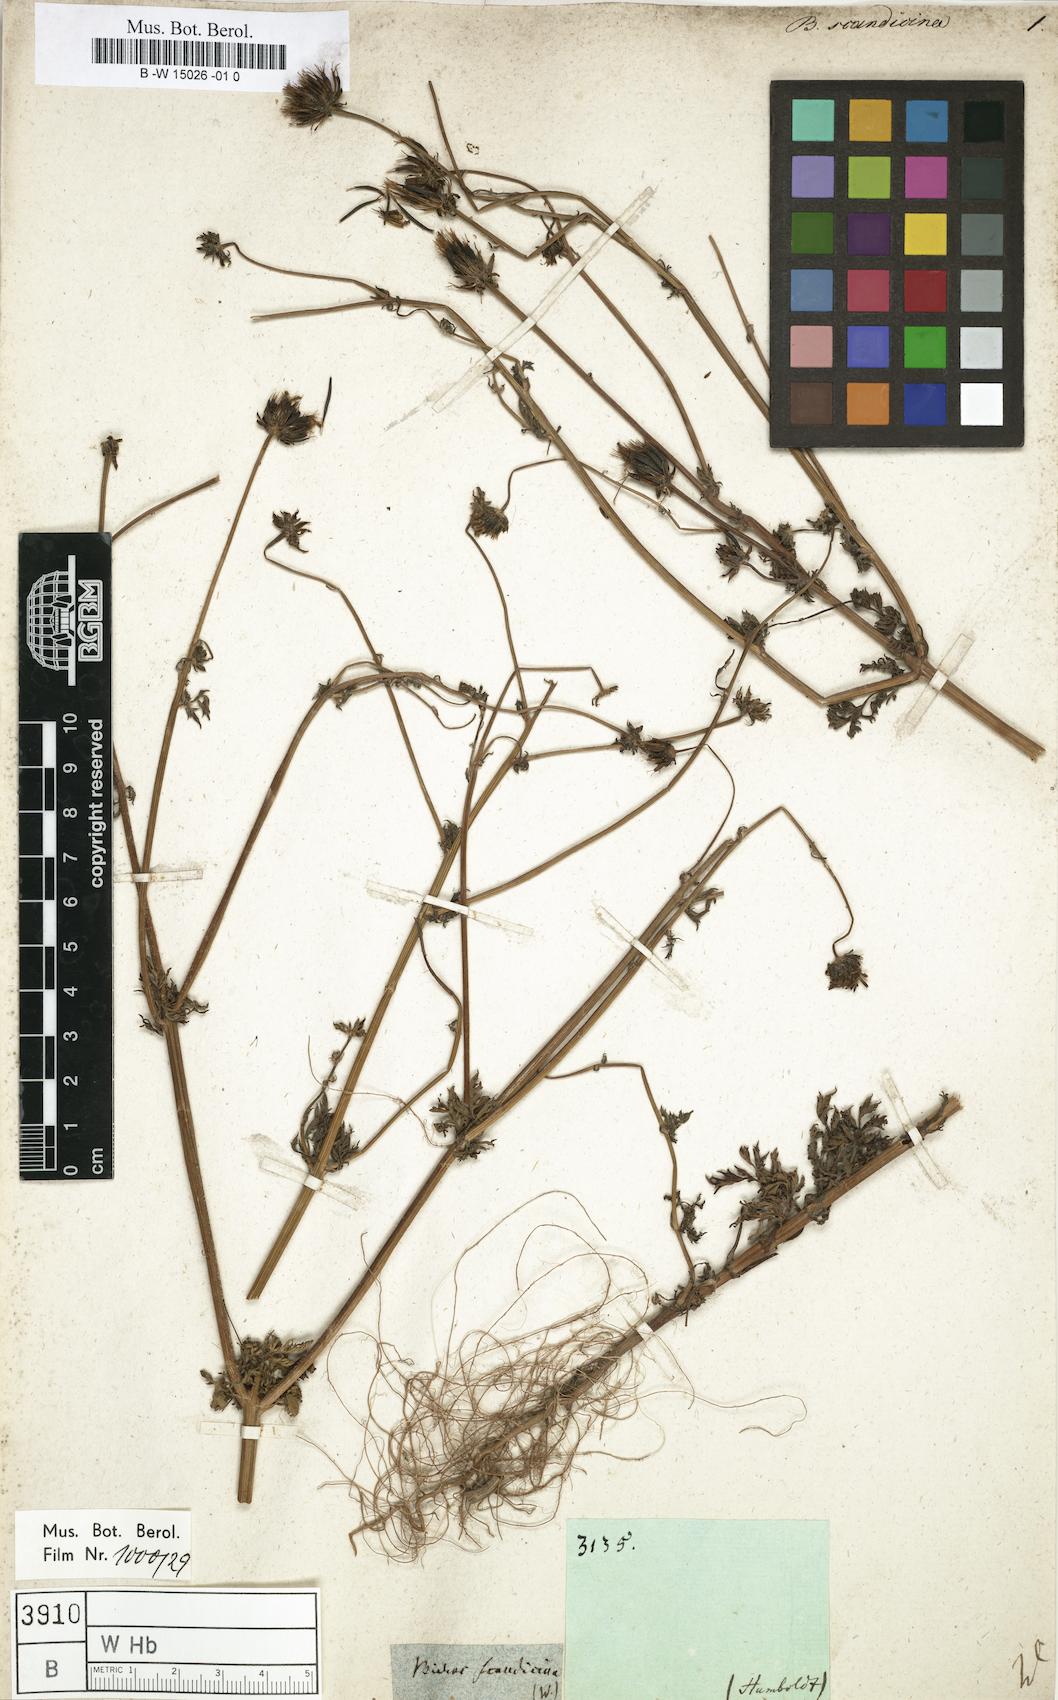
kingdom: Plantae
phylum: Tracheophyta
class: Magnoliopsida
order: Asterales
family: Asteraceae
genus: Bidens
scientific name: Bidens pilosa
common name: Black-jack
